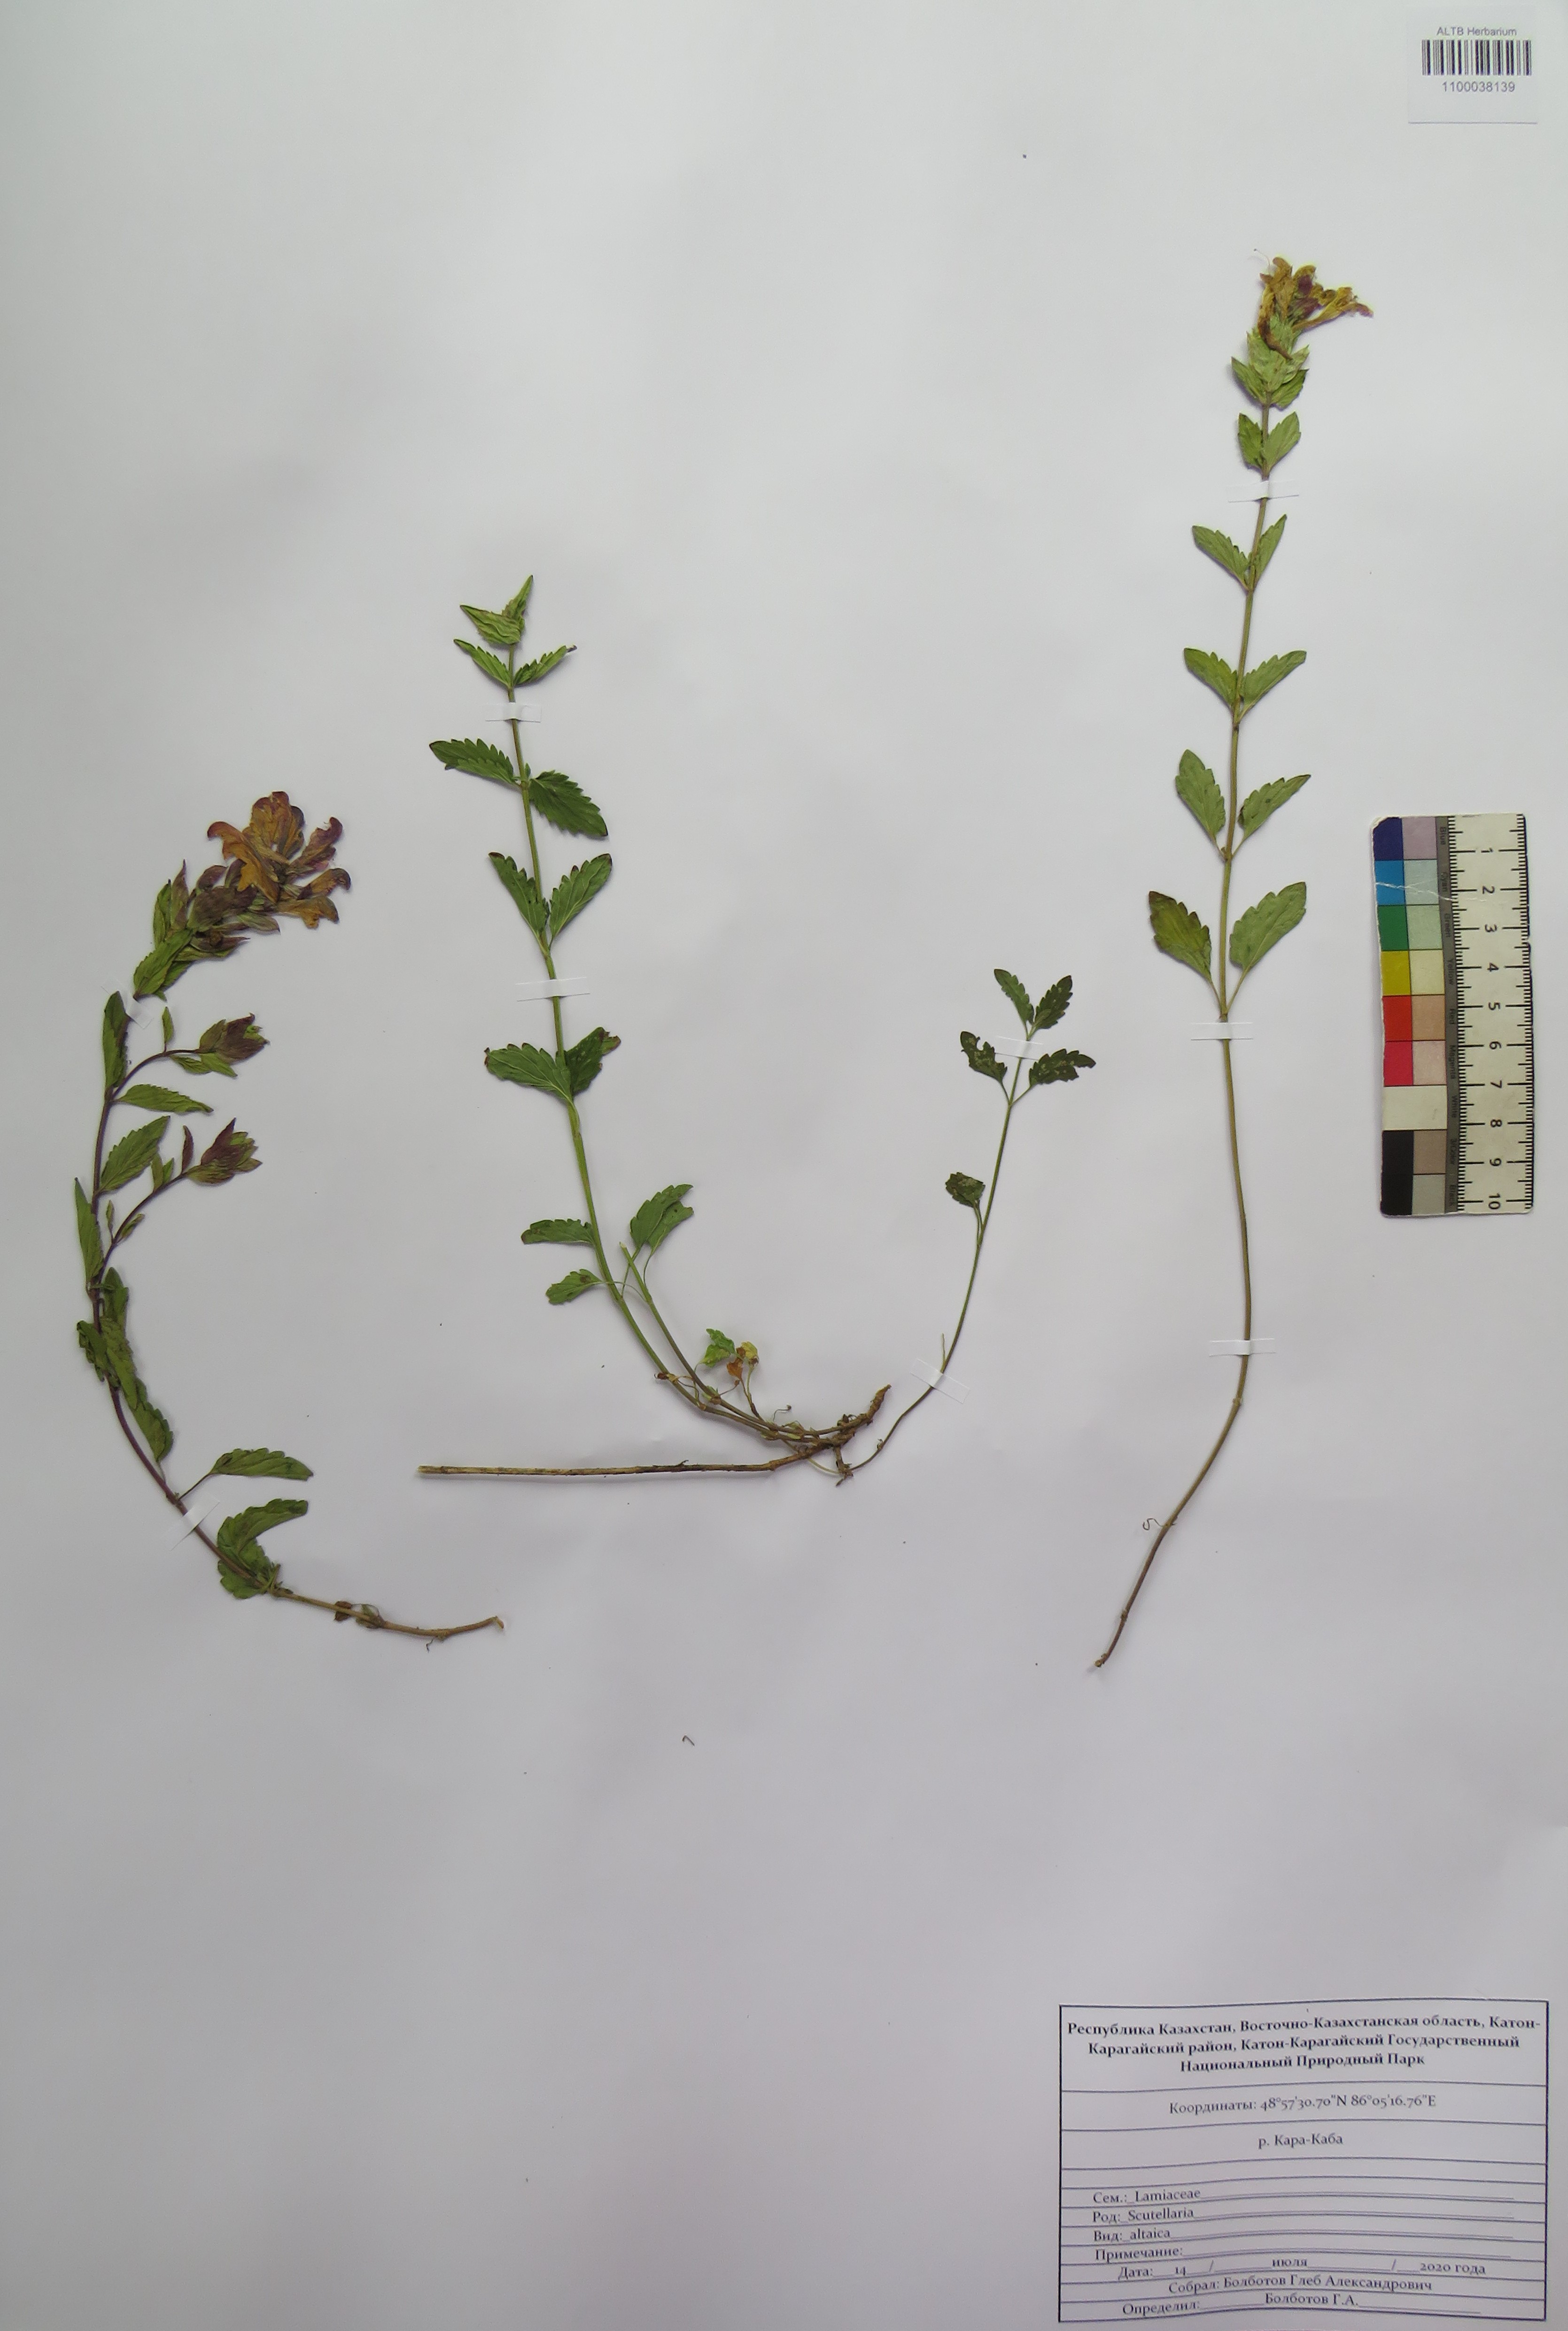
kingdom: Plantae
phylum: Tracheophyta
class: Magnoliopsida
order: Lamiales
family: Lamiaceae
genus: Scutellaria
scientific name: Scutellaria altaica
